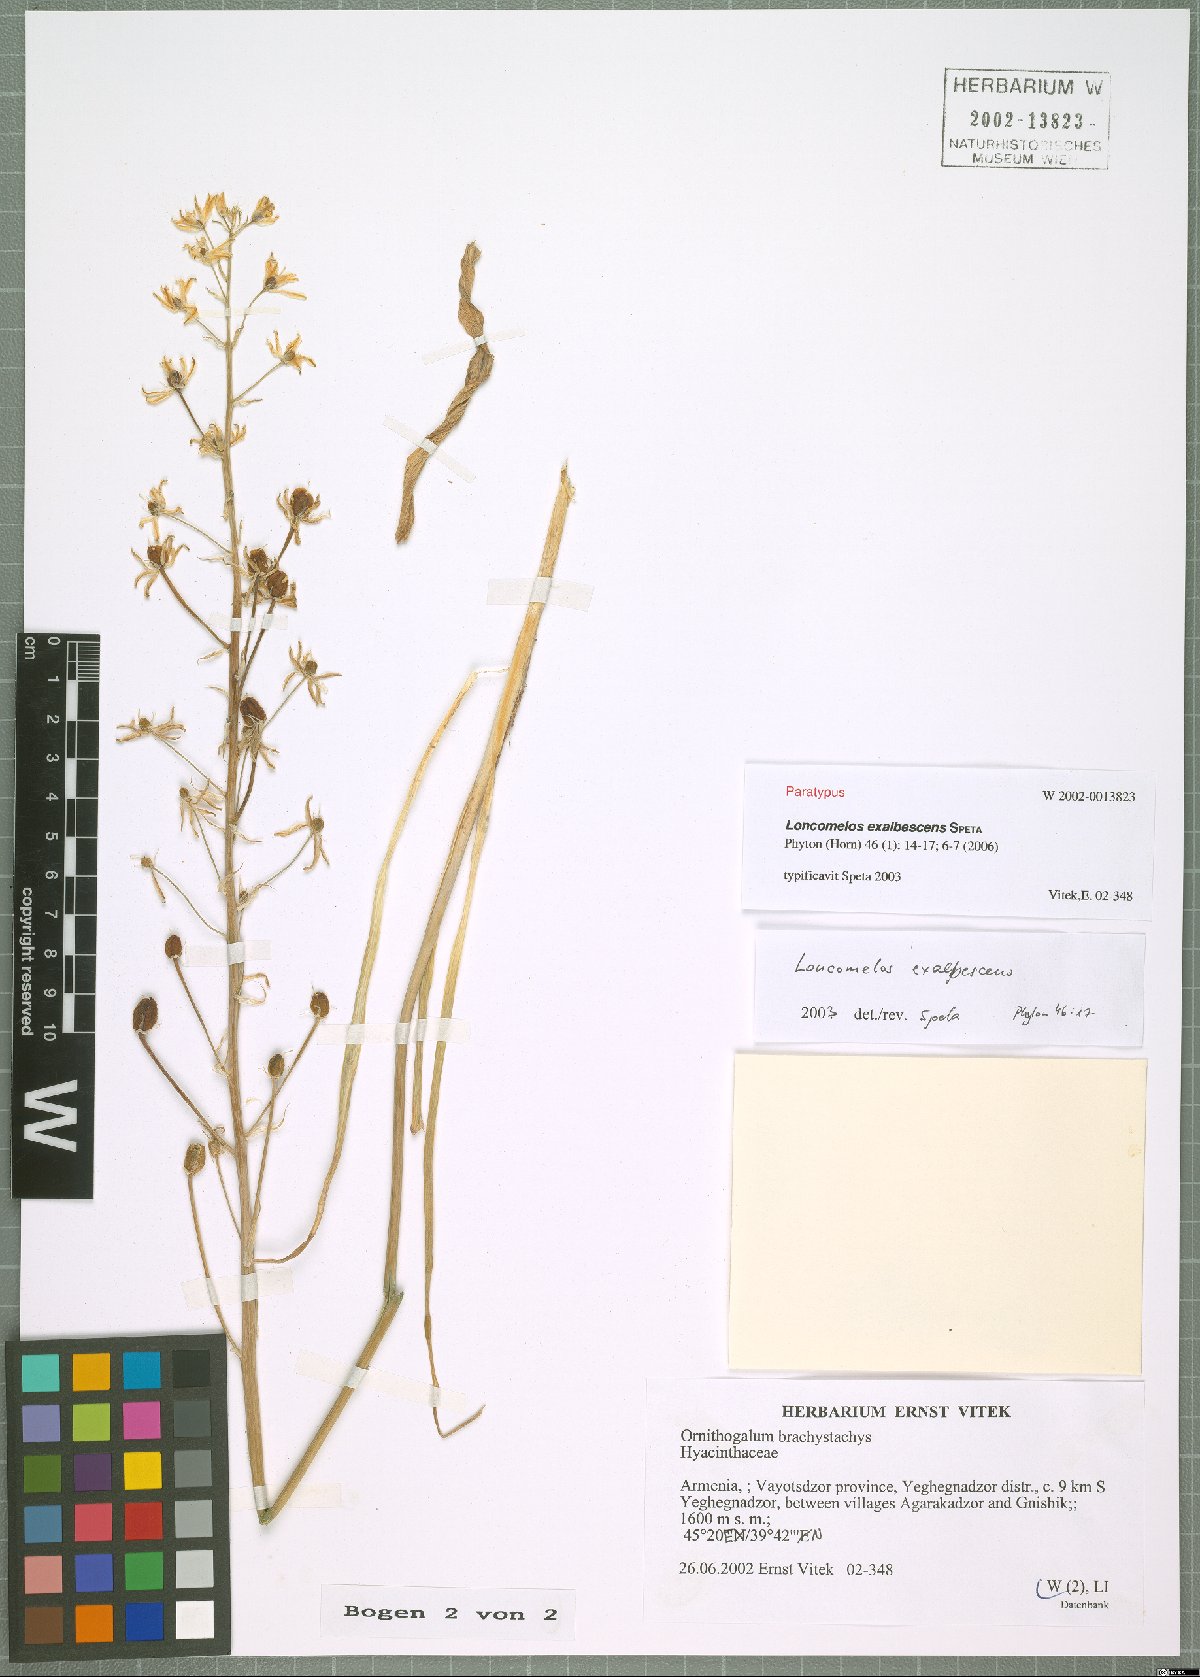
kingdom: Plantae
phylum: Tracheophyta
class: Liliopsida
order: Asparagales
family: Asparagaceae
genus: Ornithogalum
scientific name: Ornithogalum Loncomelos exalbescens
